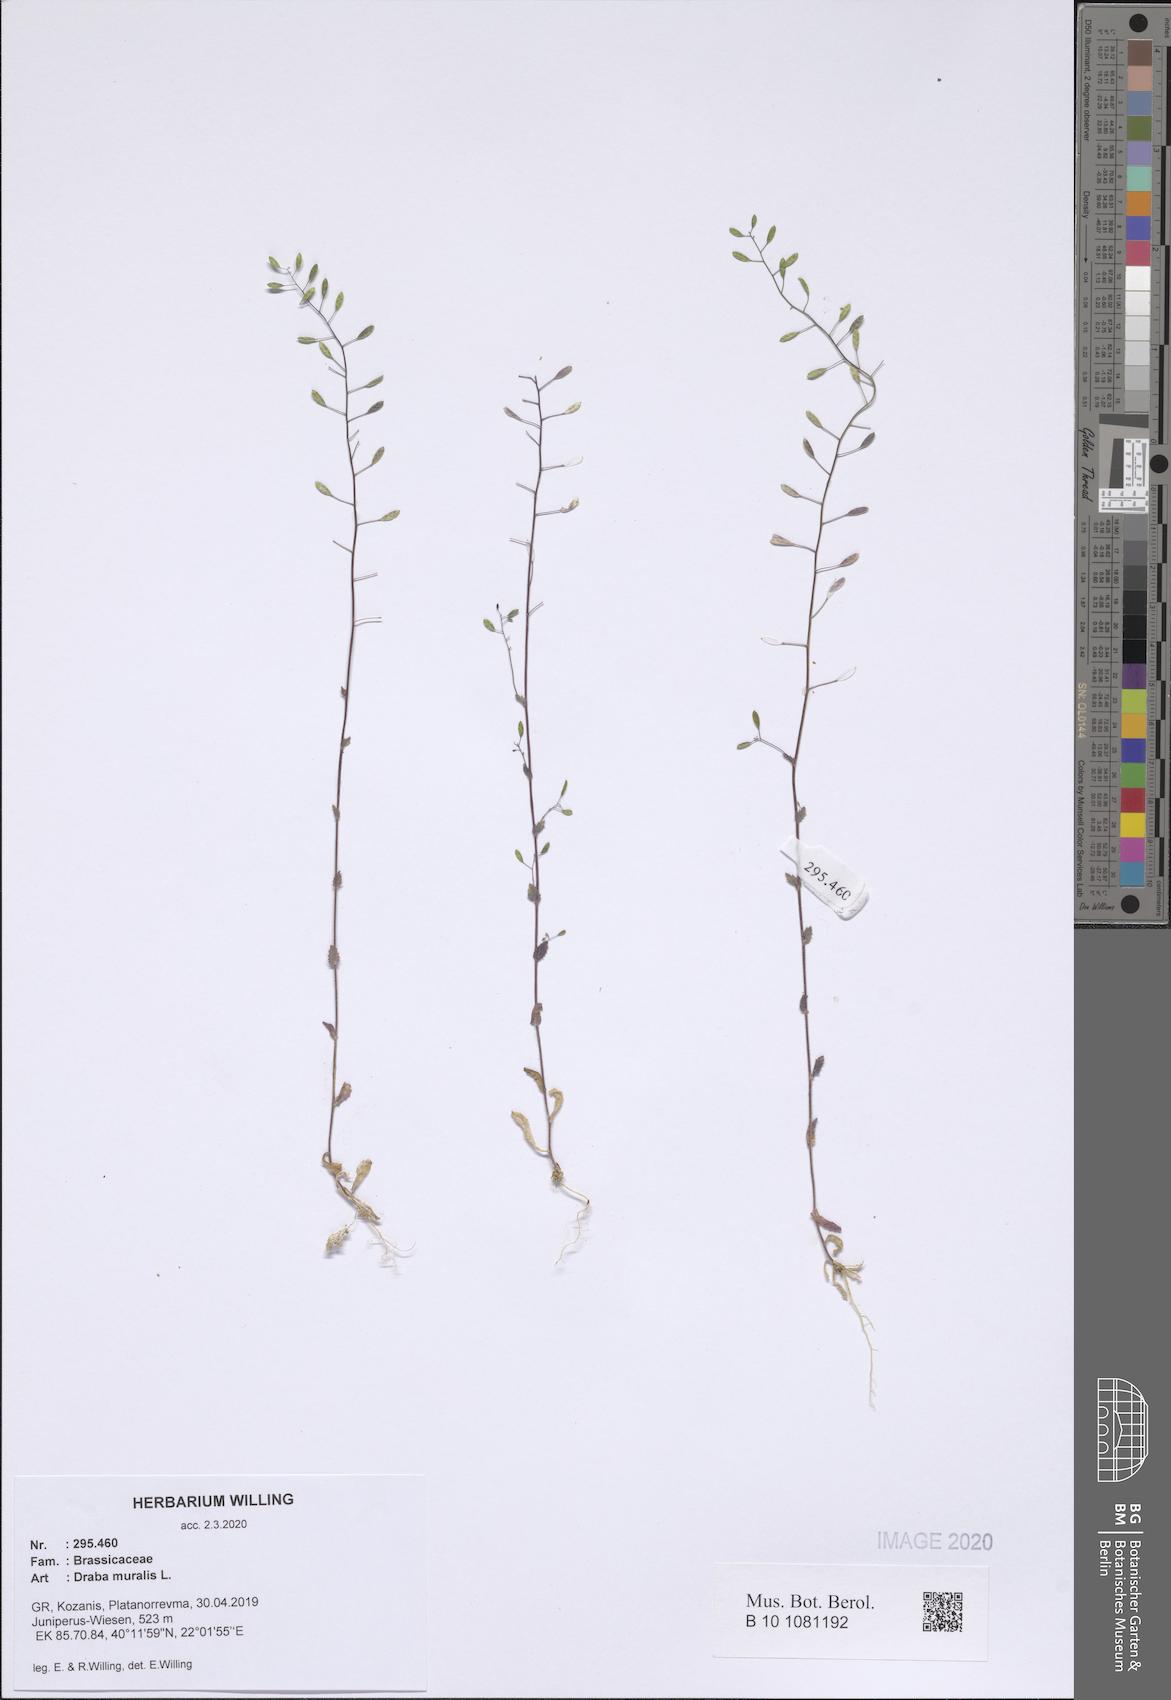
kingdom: Plantae
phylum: Tracheophyta
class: Magnoliopsida
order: Brassicales
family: Brassicaceae
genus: Drabella
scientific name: Drabella muralis
